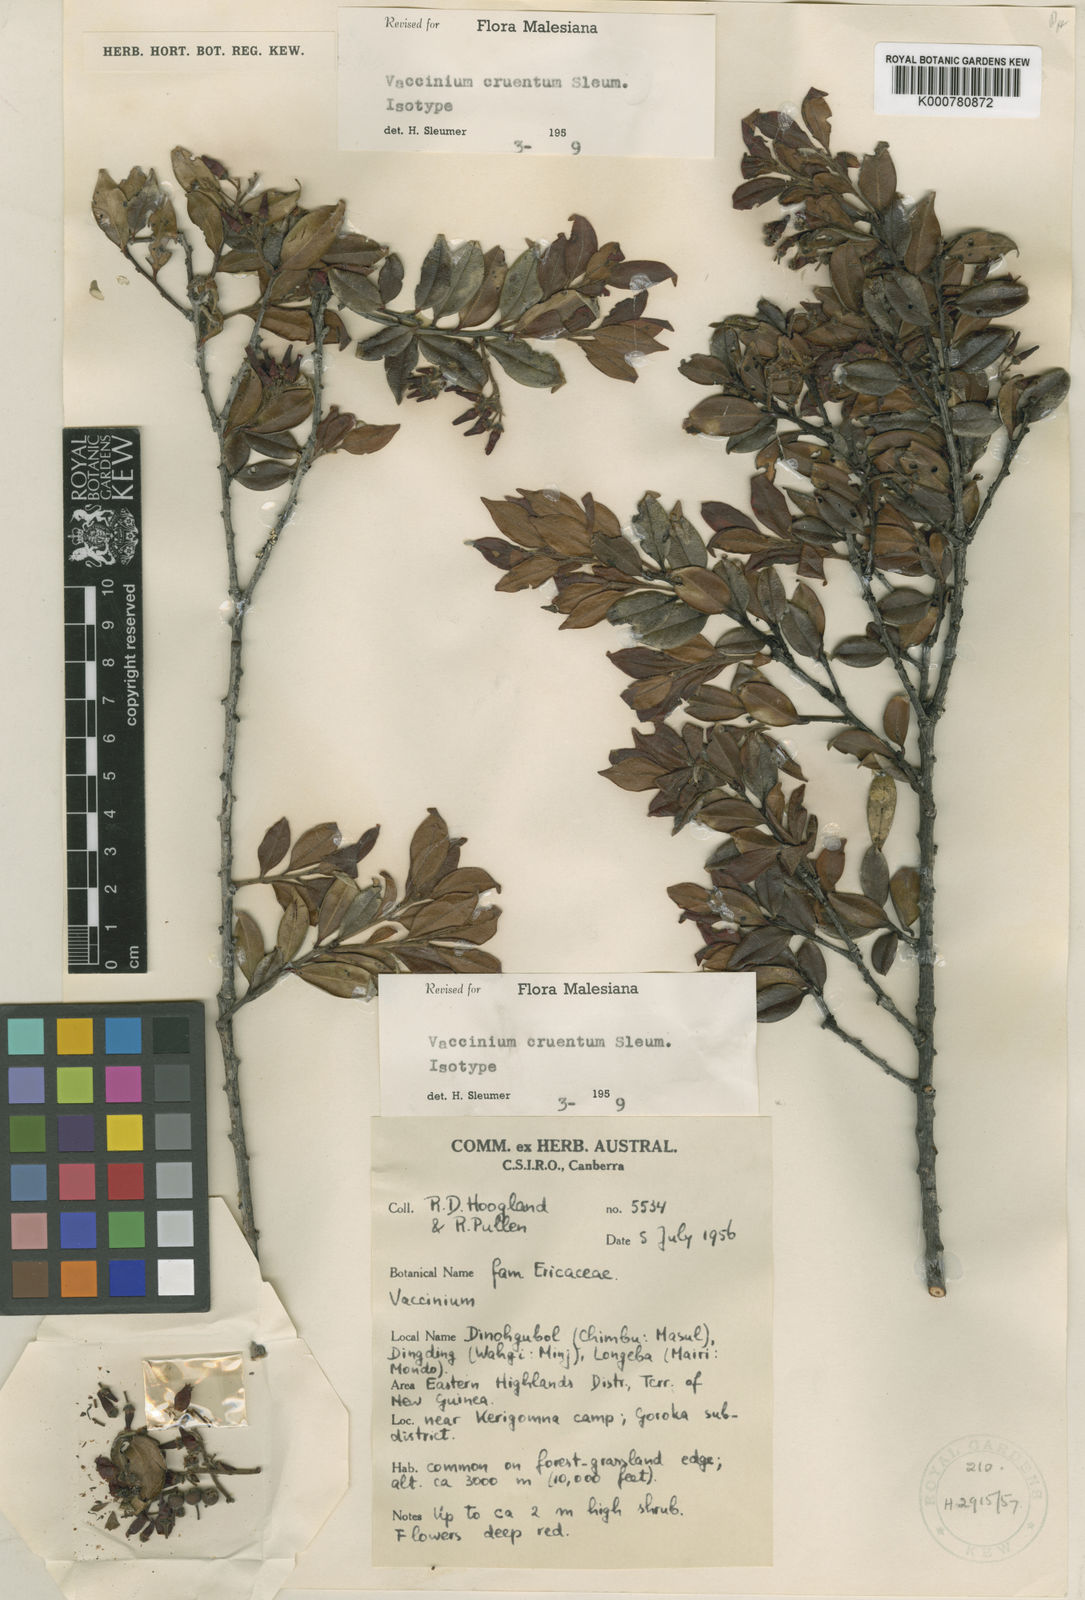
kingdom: Plantae
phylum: Tracheophyta
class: Magnoliopsida
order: Ericales
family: Ericaceae
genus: Vaccinium
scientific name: Vaccinium cruentum
